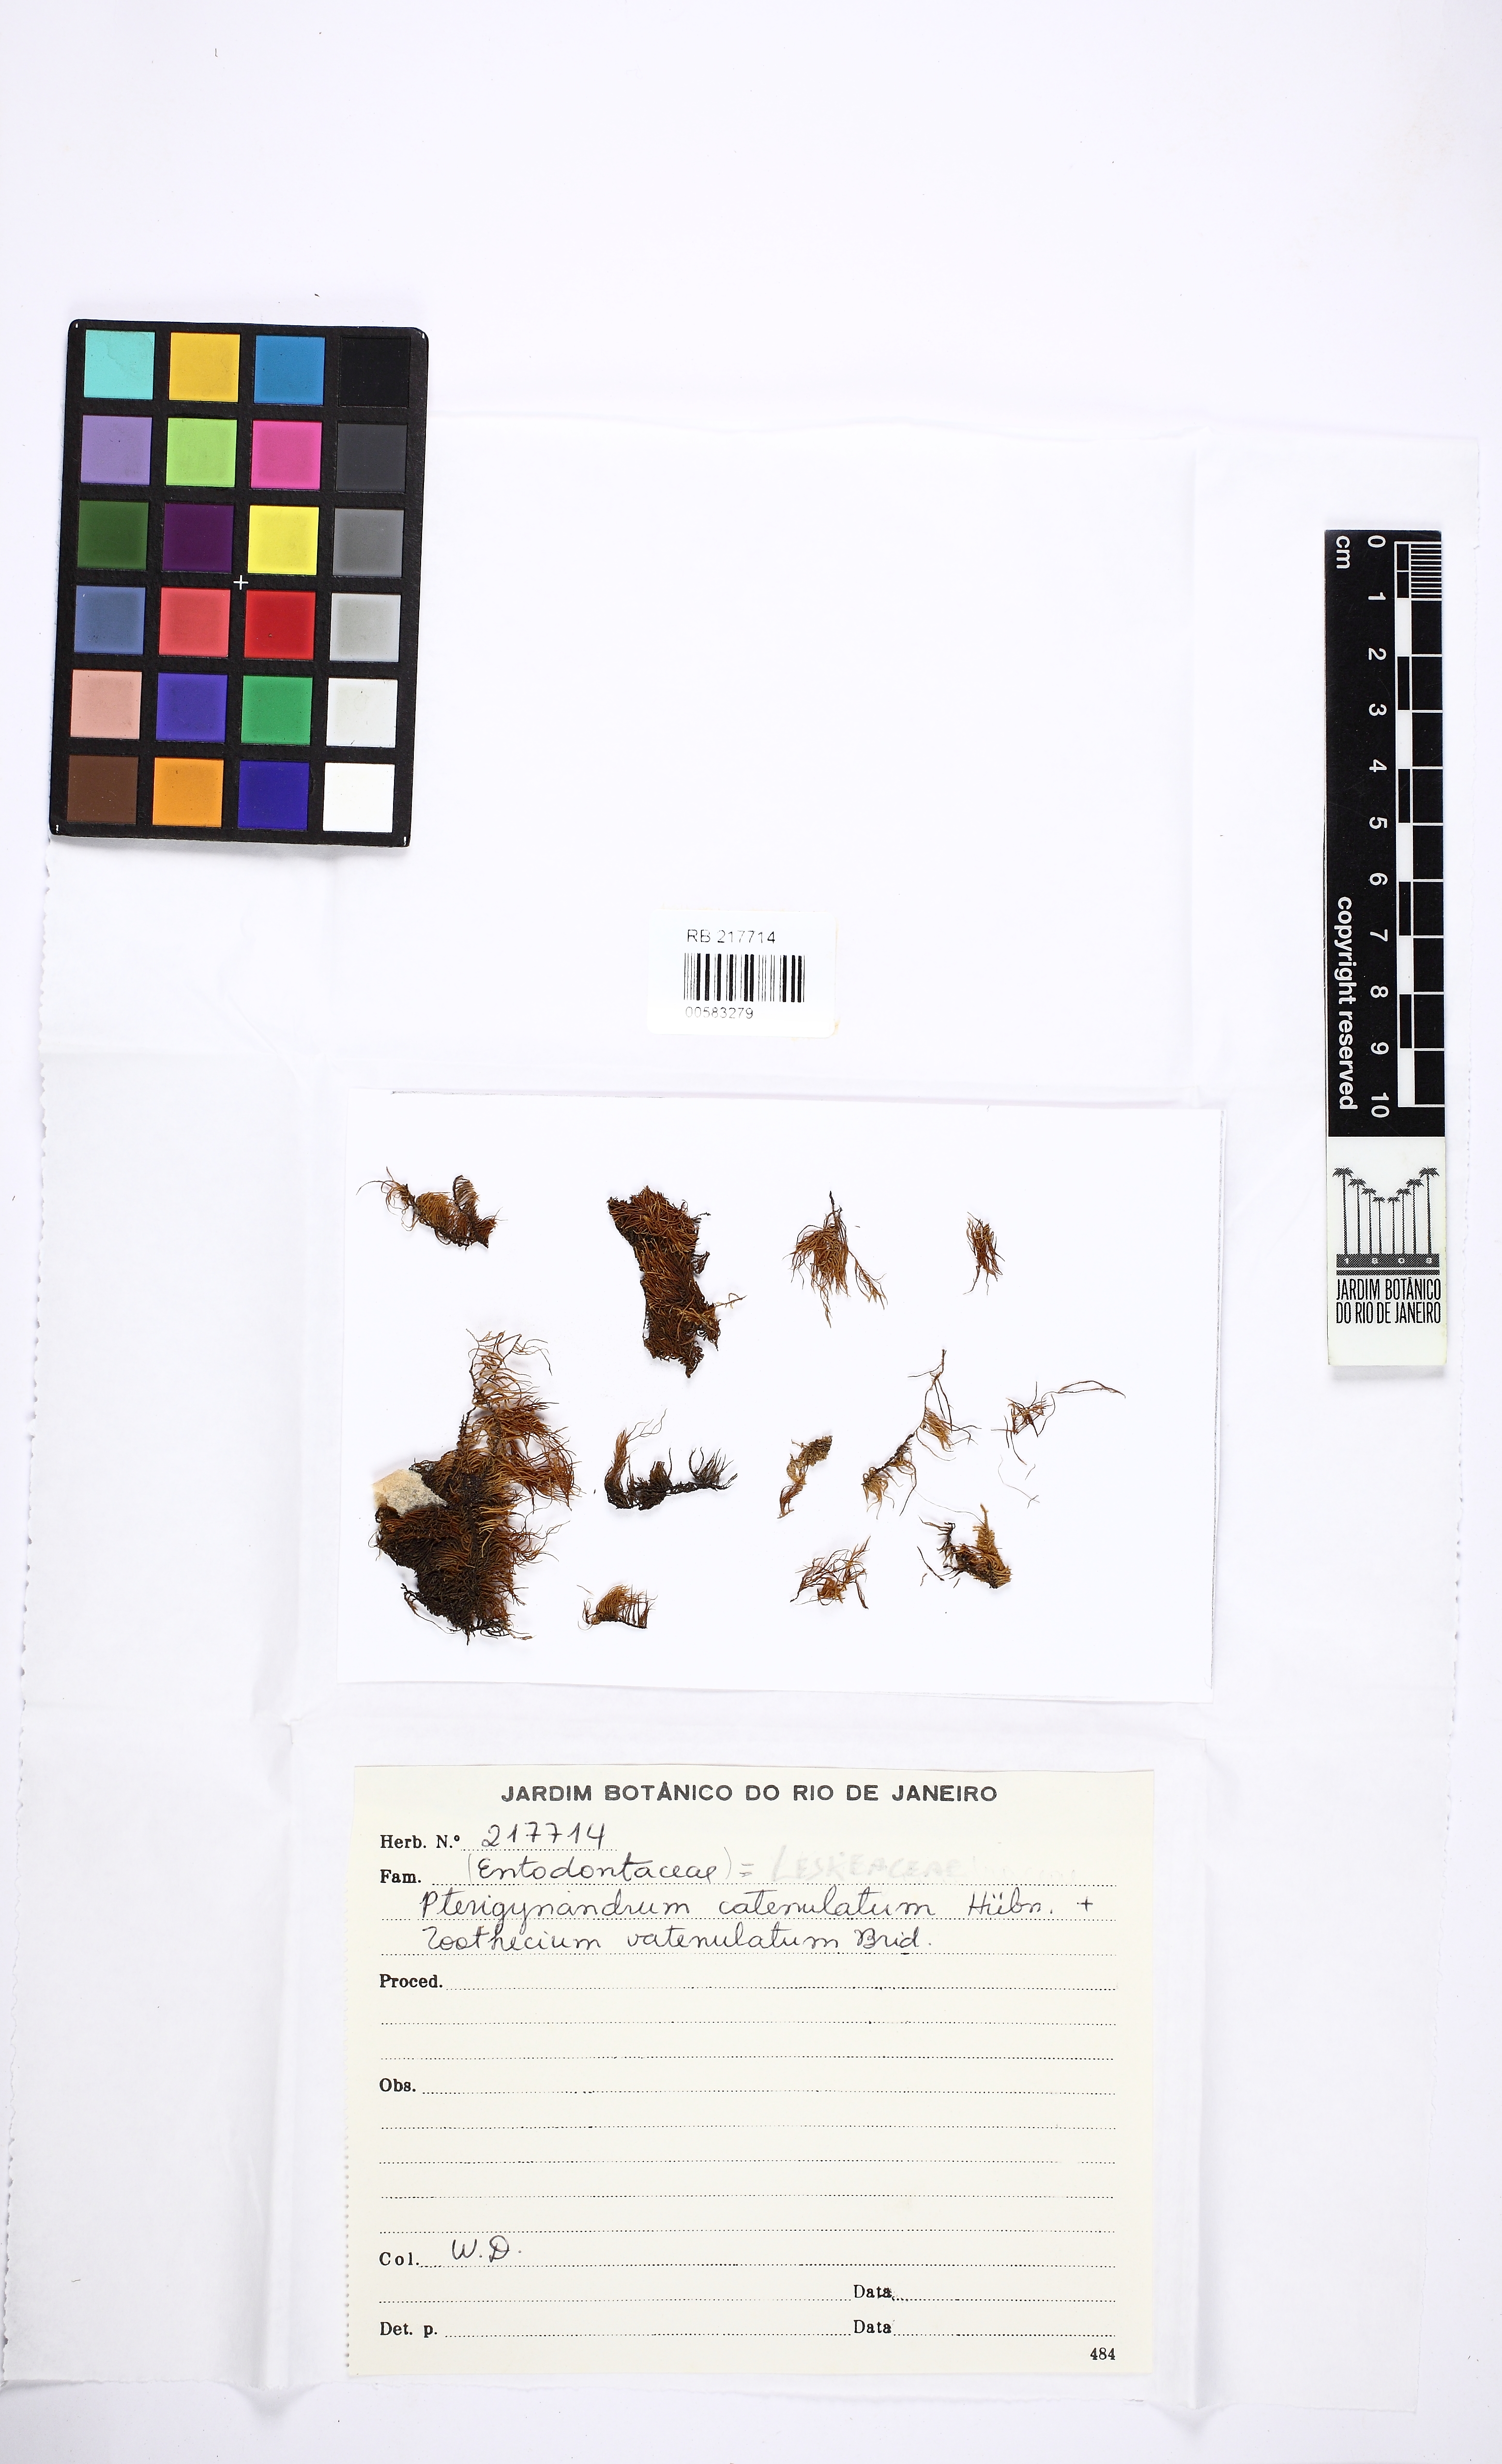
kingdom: Plantae
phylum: Bryophyta
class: Bryopsida
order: Hypnales
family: Pseudoleskeellaceae
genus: Pseudoleskeella
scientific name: Pseudoleskeella catenulata
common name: Chained leskea
